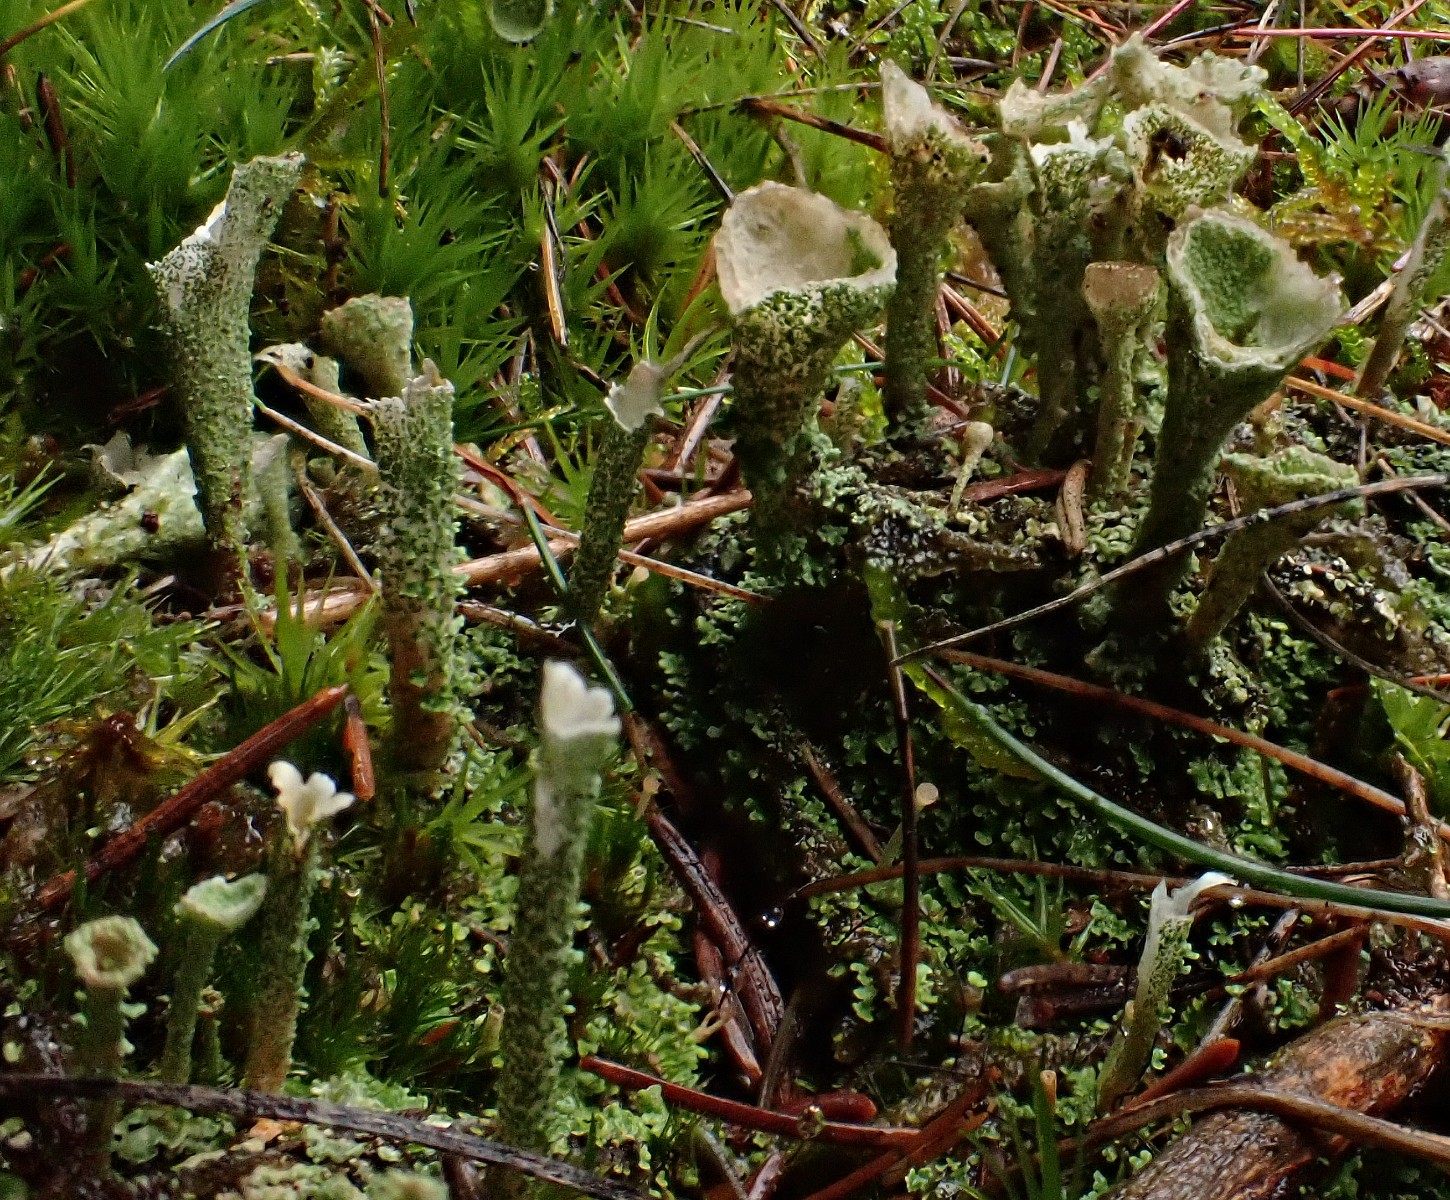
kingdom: Fungi
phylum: Ascomycota
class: Lecanoromycetes
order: Lecanorales
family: Cladoniaceae
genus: Cladonia
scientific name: Cladonia
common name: brungrøn bægerlav
